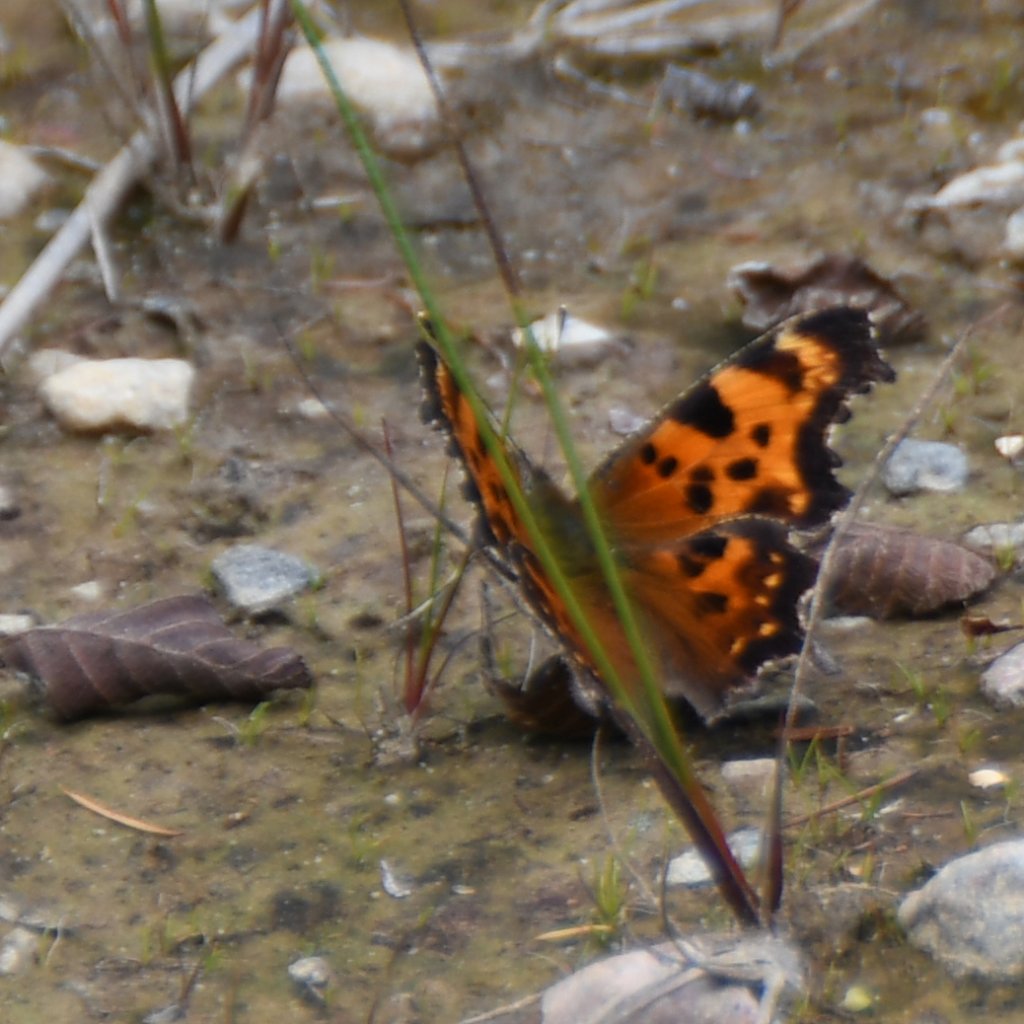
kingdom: Animalia
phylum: Arthropoda
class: Insecta
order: Lepidoptera
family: Nymphalidae
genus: Polygonia
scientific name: Polygonia faunus
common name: Green Comma
